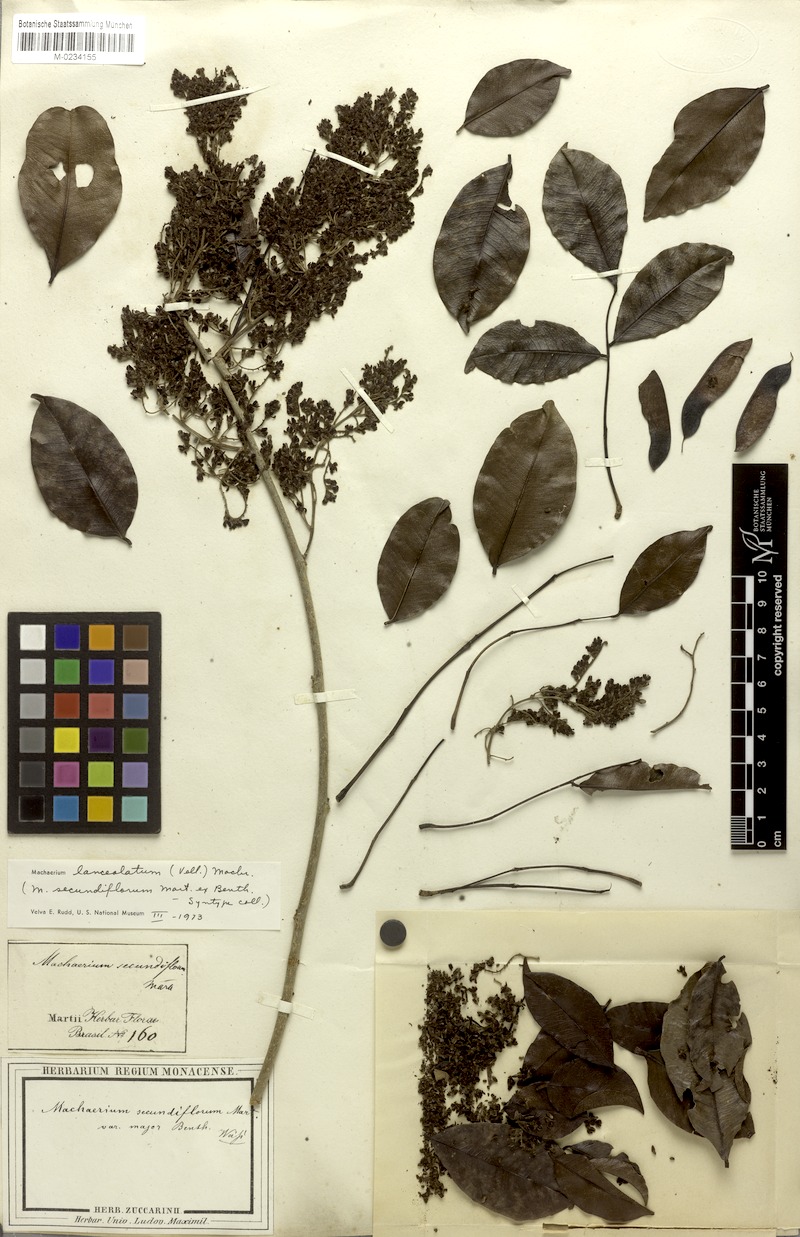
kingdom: Plantae
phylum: Tracheophyta
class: Magnoliopsida
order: Fabales
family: Fabaceae
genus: Machaerium
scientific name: Machaerium lanceolatum
